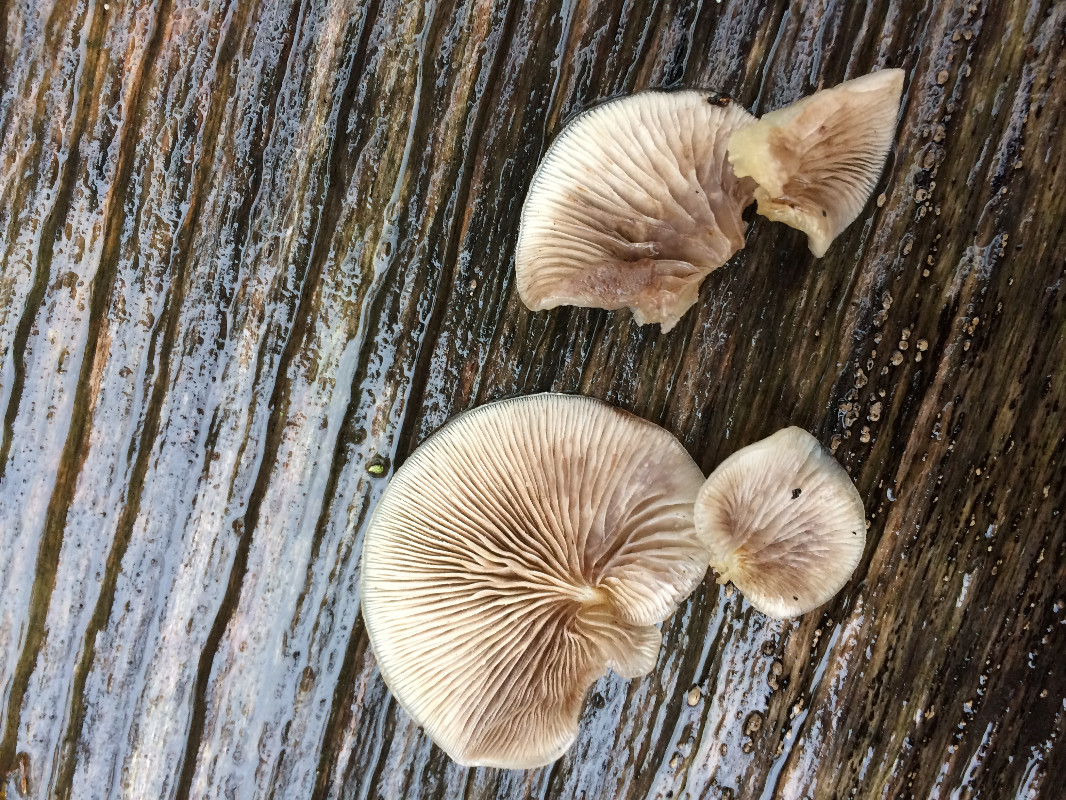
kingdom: Fungi
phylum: Basidiomycota
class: Agaricomycetes
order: Agaricales
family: Sarcomyxaceae
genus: Sarcomyxa
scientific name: Sarcomyxa serotina
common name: gummihat
